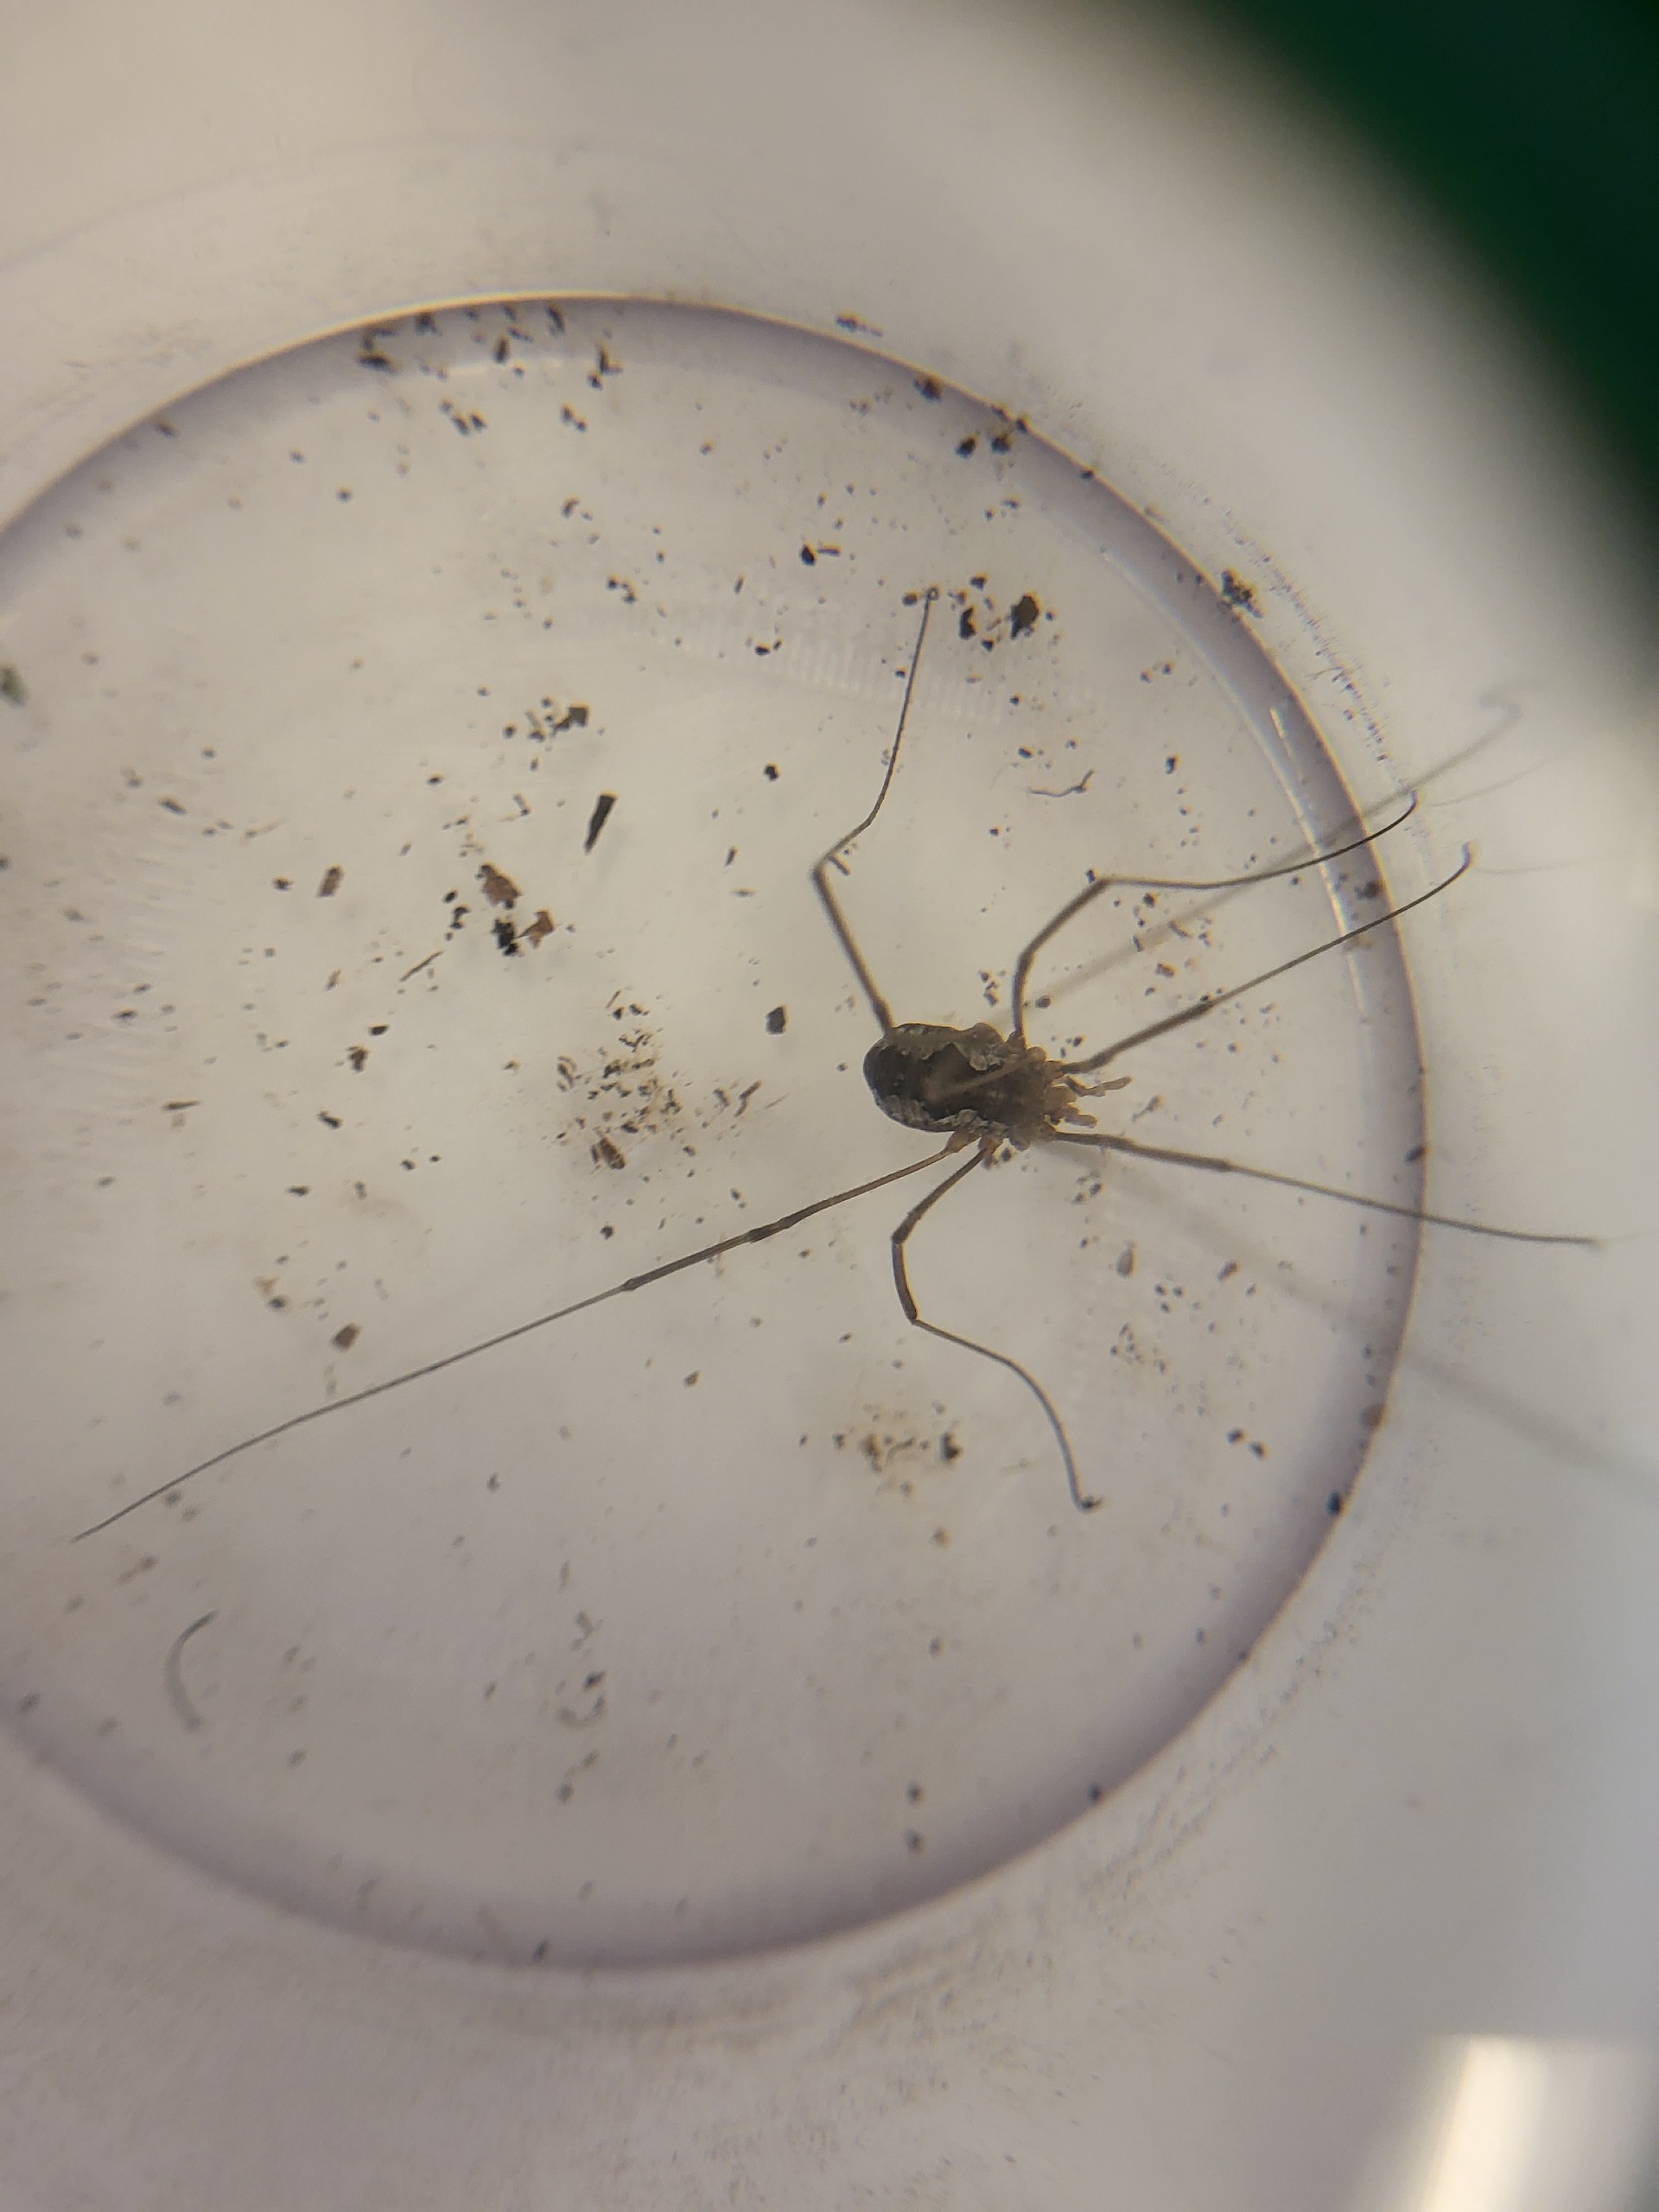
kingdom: Animalia
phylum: Arthropoda
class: Arachnida
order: Opiliones
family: Phalangiidae
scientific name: Phalangiidae
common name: Stormejere
